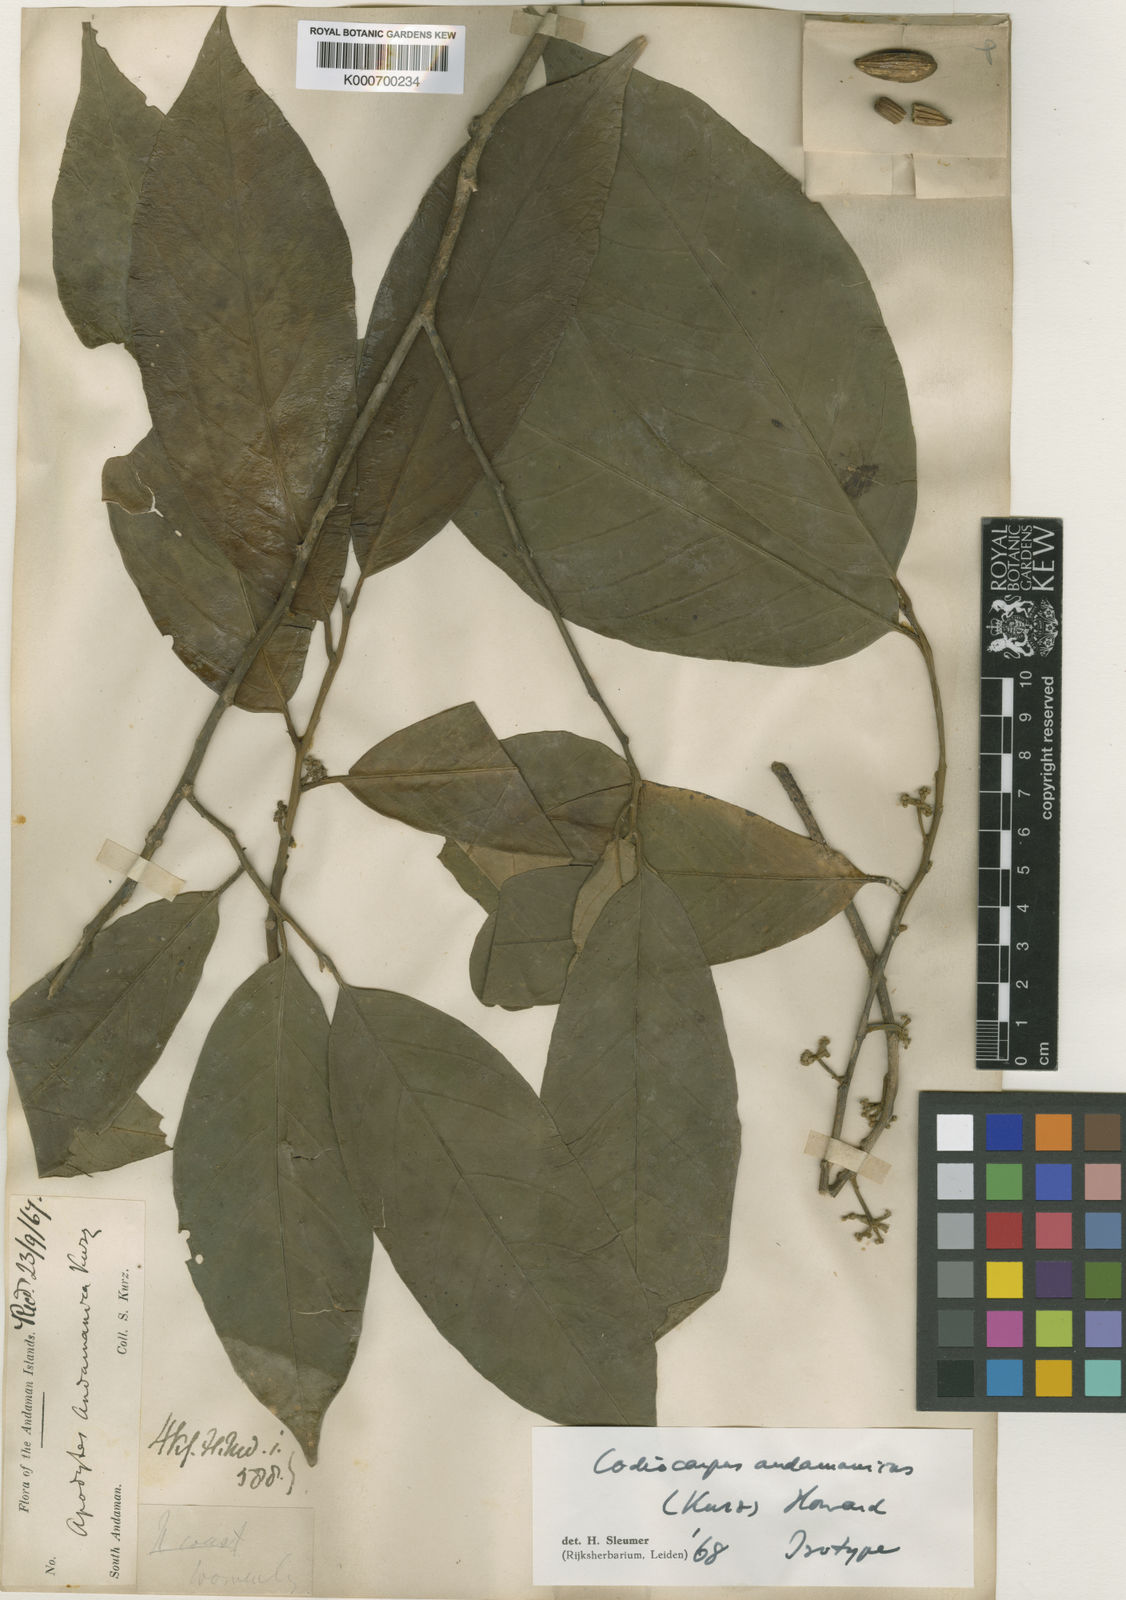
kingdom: Plantae
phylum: Tracheophyta
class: Magnoliopsida
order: Cardiopteridales
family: Stemonuraceae
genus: Codiocarpus
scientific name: Codiocarpus andamanicus
